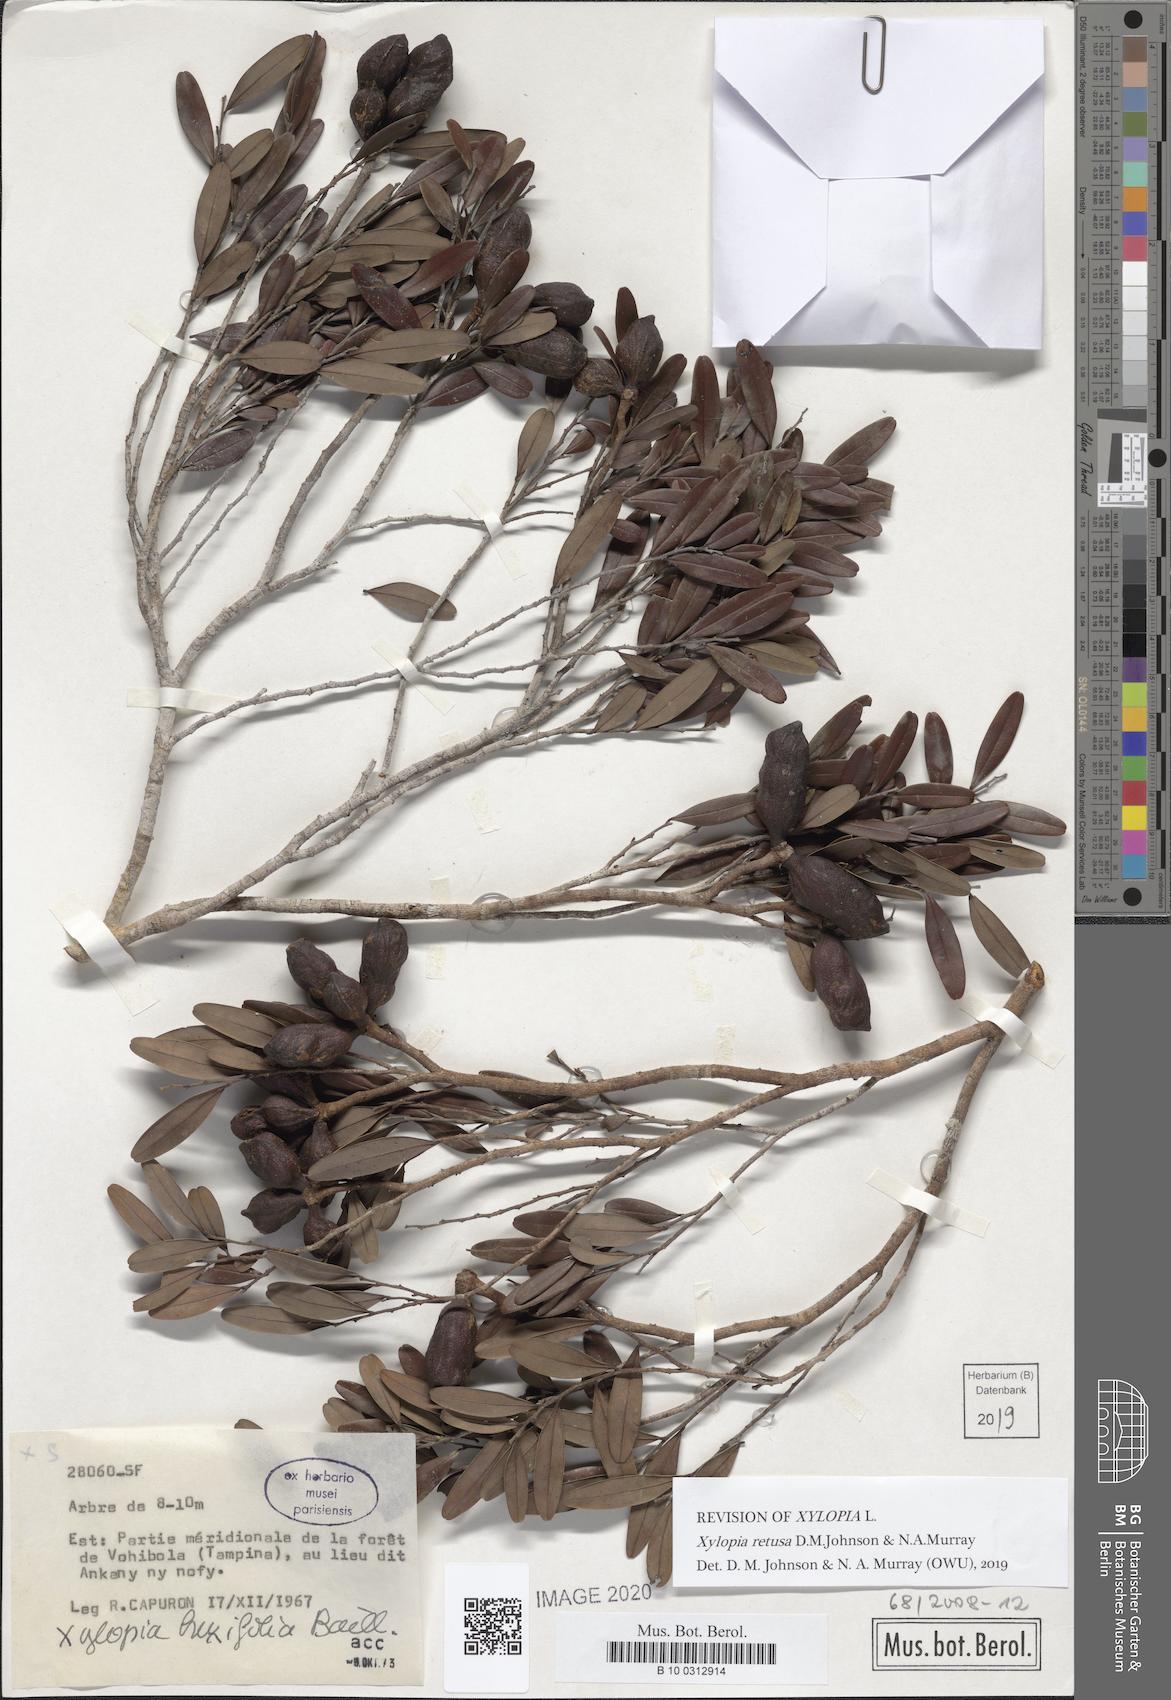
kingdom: Plantae
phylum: Tracheophyta
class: Magnoliopsida
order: Magnoliales
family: Annonaceae
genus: Xylopia
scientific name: Xylopia retusa
